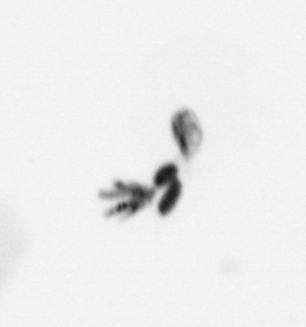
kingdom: Animalia
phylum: Arthropoda
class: Copepoda
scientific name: Copepoda
